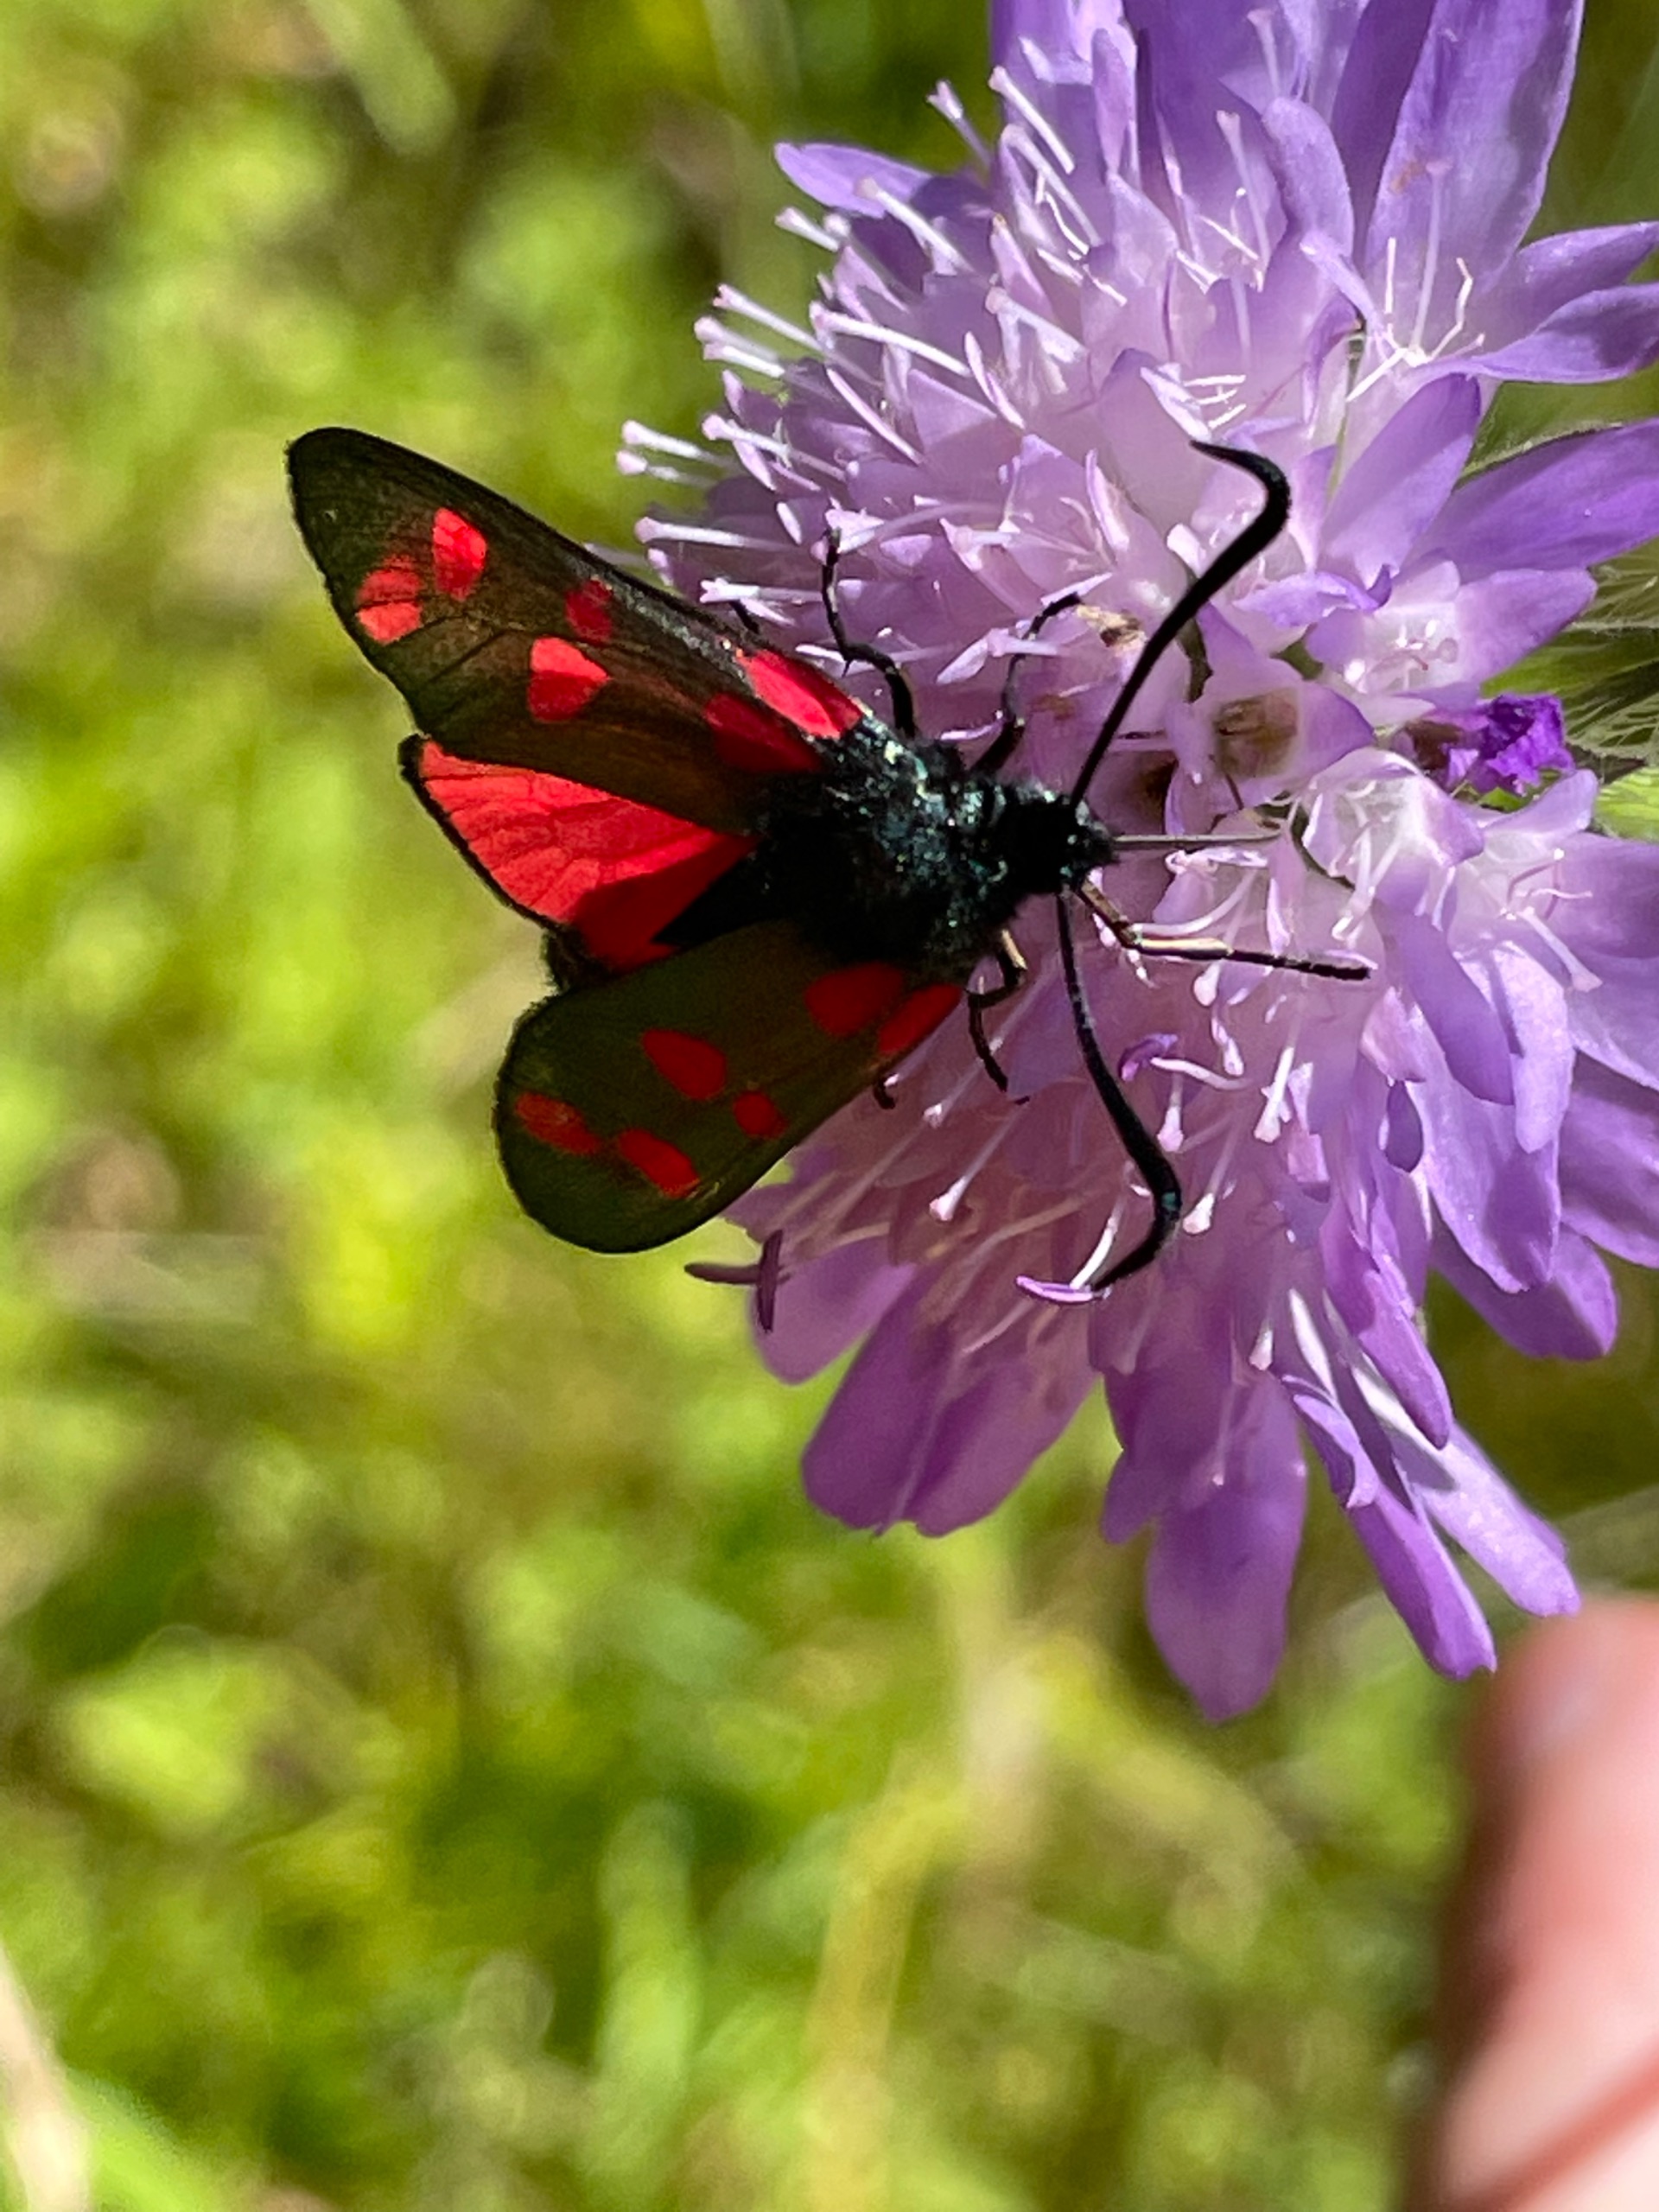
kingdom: Animalia
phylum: Arthropoda
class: Insecta
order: Lepidoptera
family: Zygaenidae
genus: Zygaena
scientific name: Zygaena filipendulae
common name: Seksplettet køllesværmer
